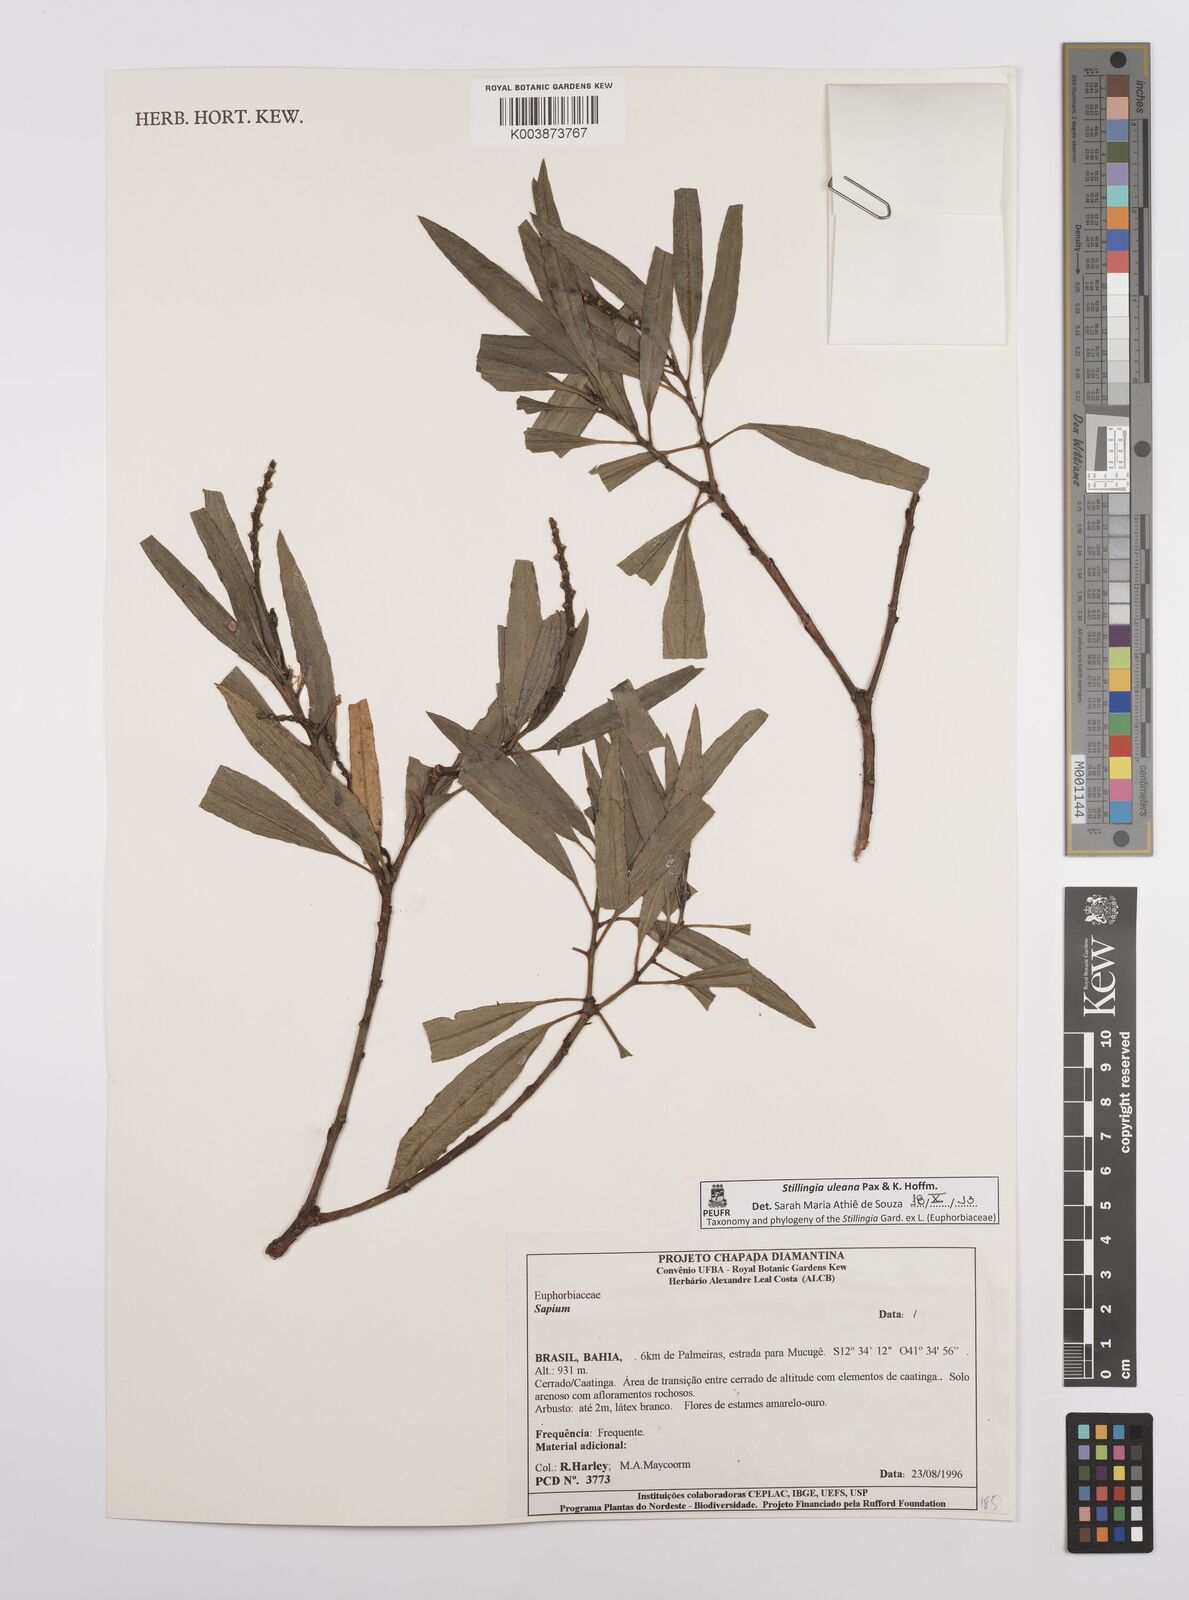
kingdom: Plantae
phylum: Tracheophyta
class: Magnoliopsida
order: Malpighiales
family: Euphorbiaceae
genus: Stillingia
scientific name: Stillingia uleana
